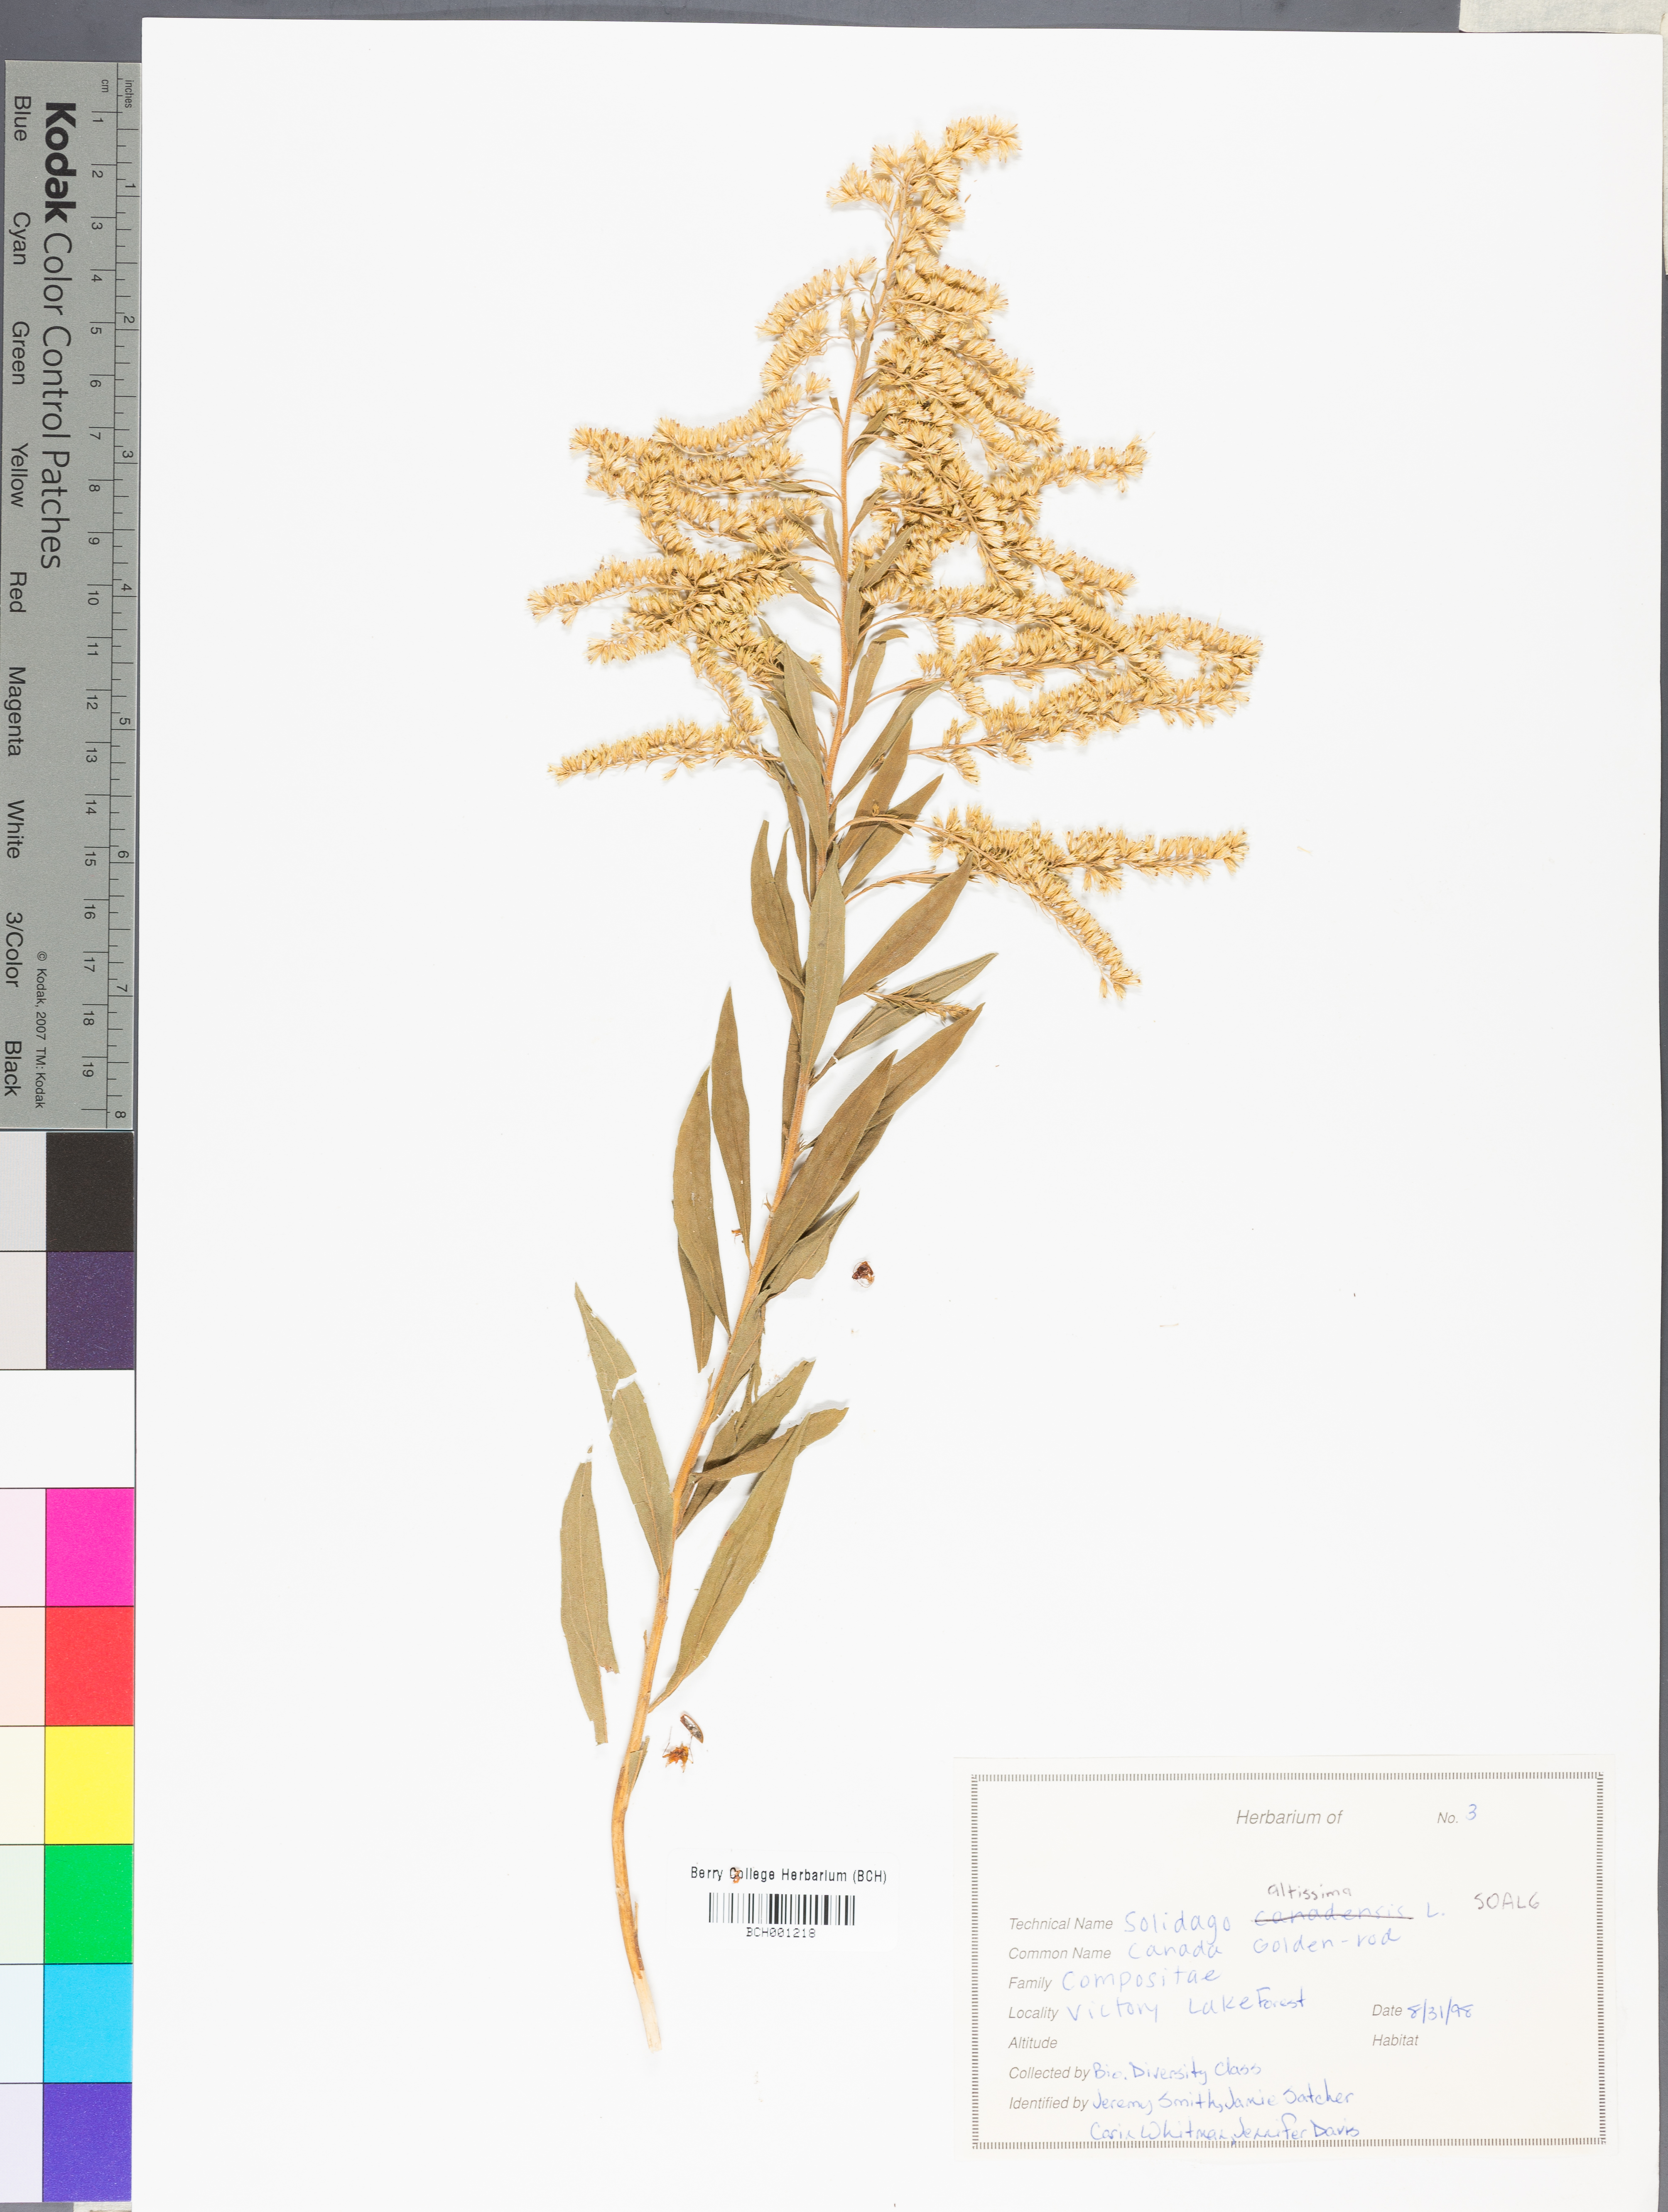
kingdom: Plantae
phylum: Tracheophyta
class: Magnoliopsida
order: Asterales
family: Asteraceae
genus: Solidago
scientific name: Solidago altissima
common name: Late goldenrod
